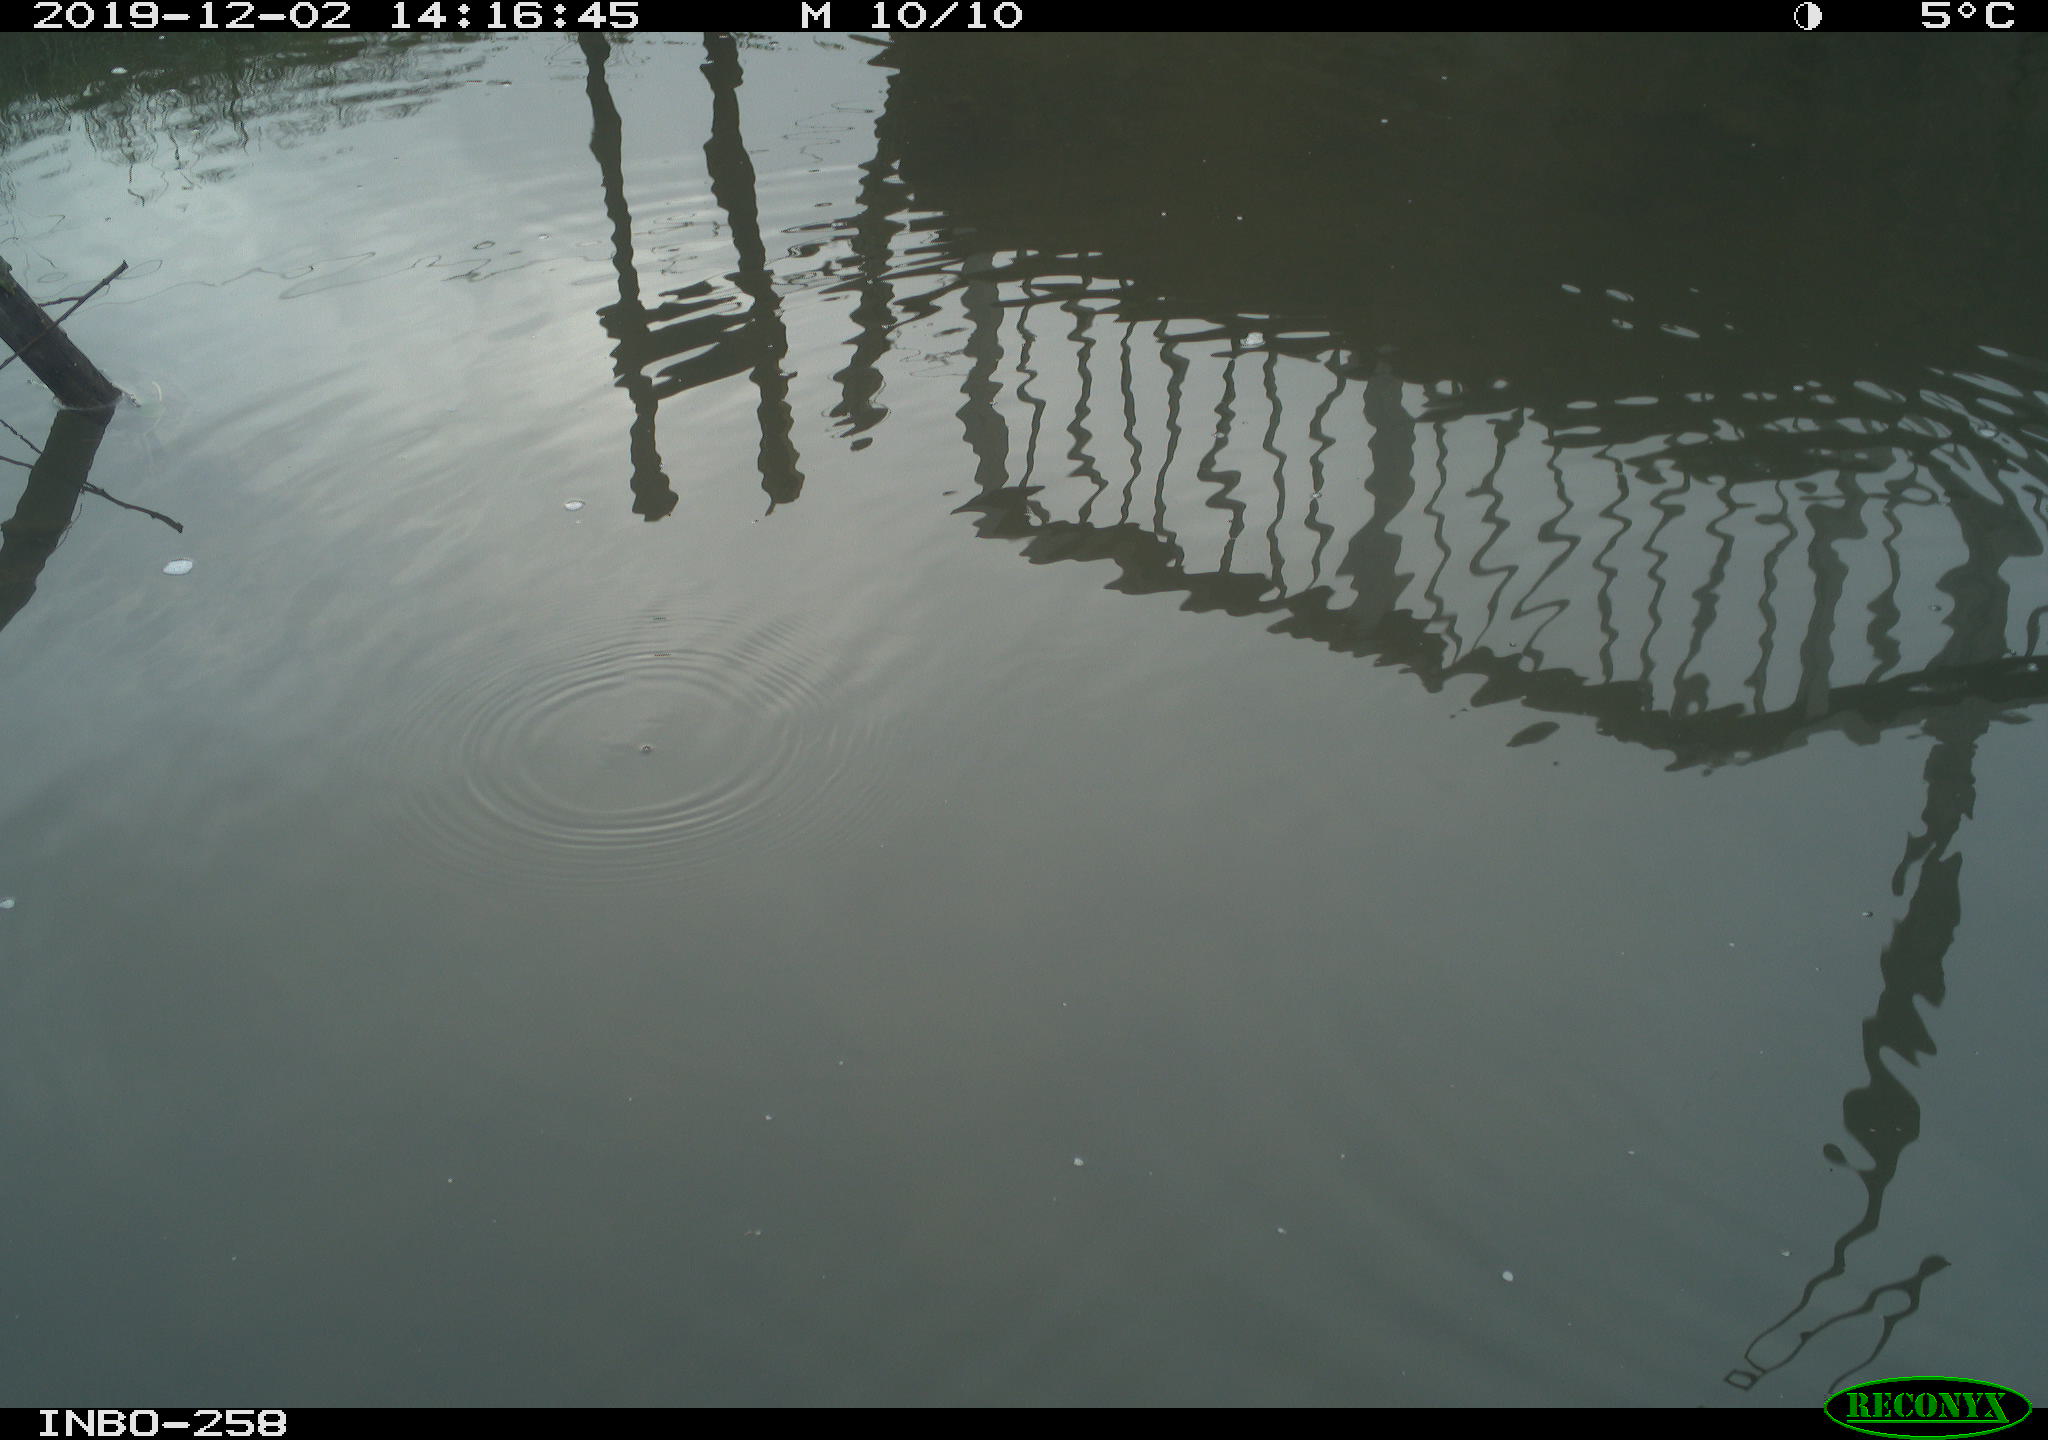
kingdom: Animalia
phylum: Chordata
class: Aves
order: Gruiformes
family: Rallidae
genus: Gallinula
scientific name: Gallinula chloropus
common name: Common moorhen
